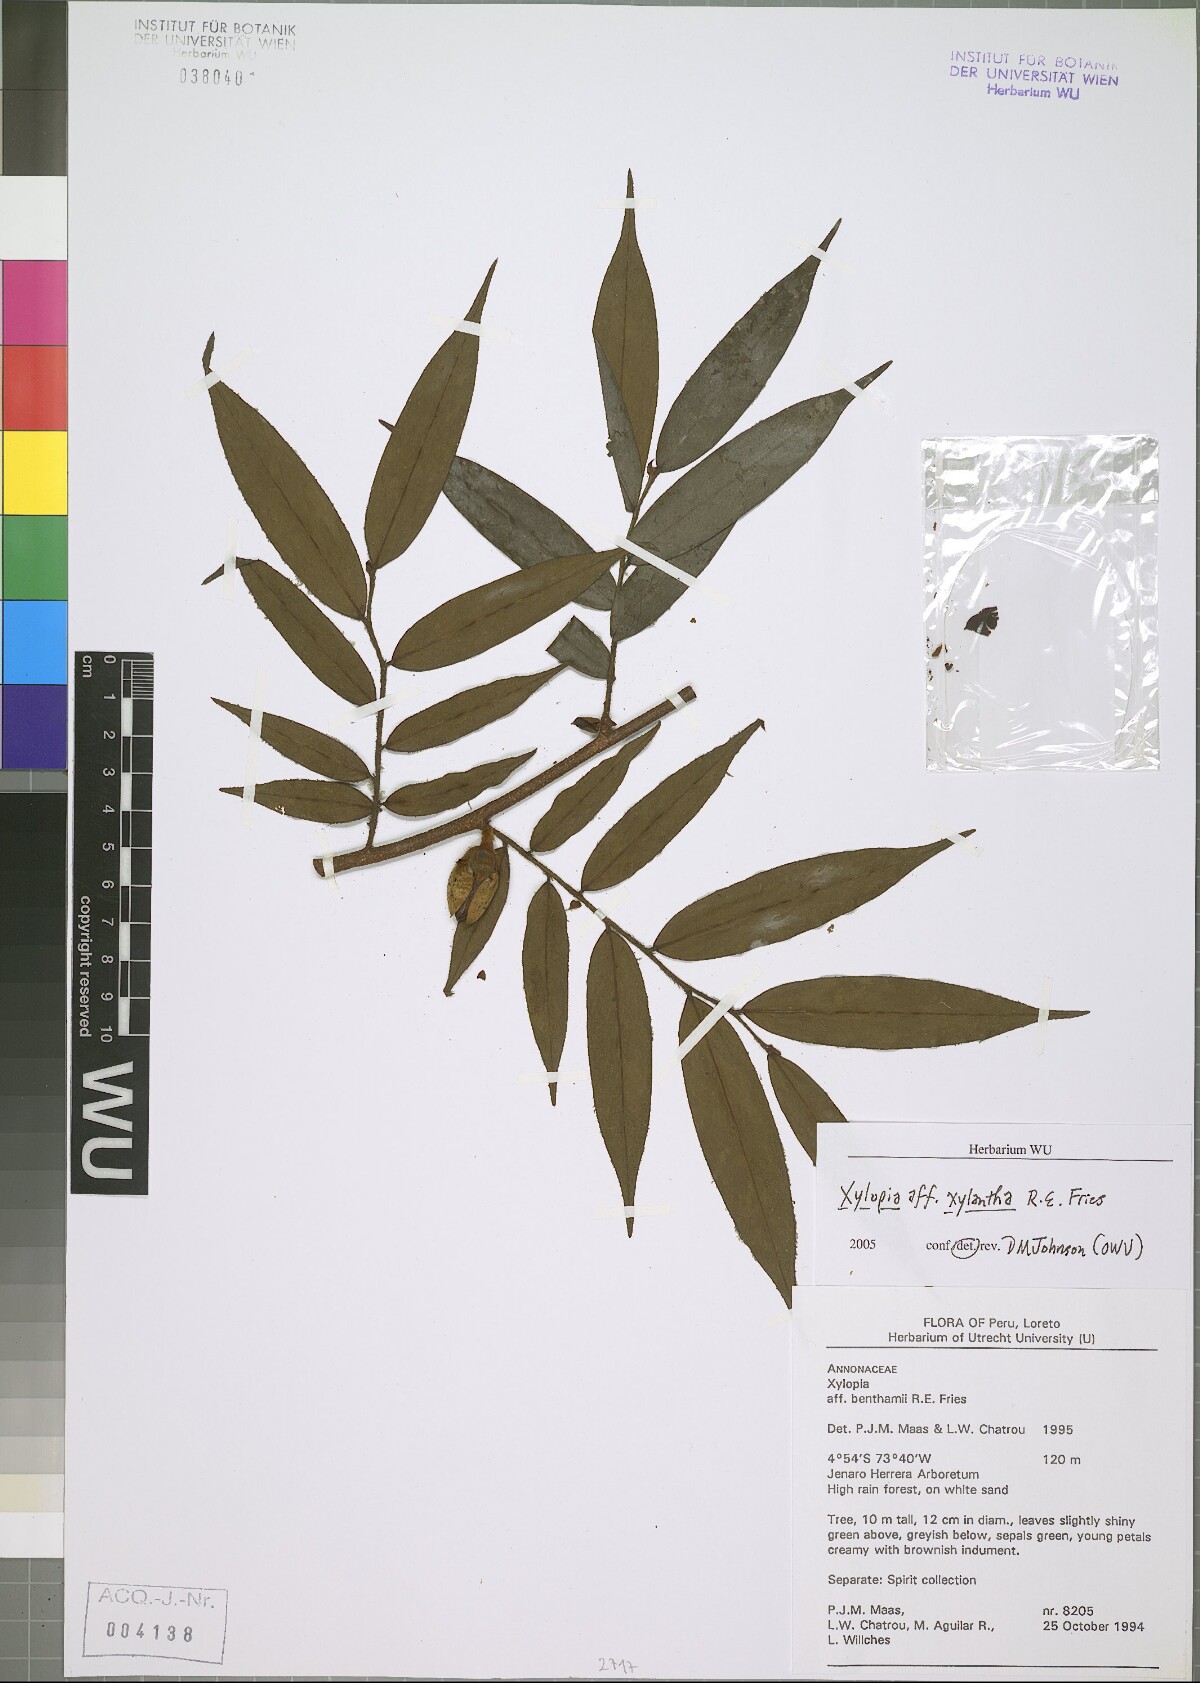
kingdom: Plantae
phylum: Tracheophyta
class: Magnoliopsida
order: Magnoliales
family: Annonaceae
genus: Xylopia
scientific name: Xylopia xylantha
